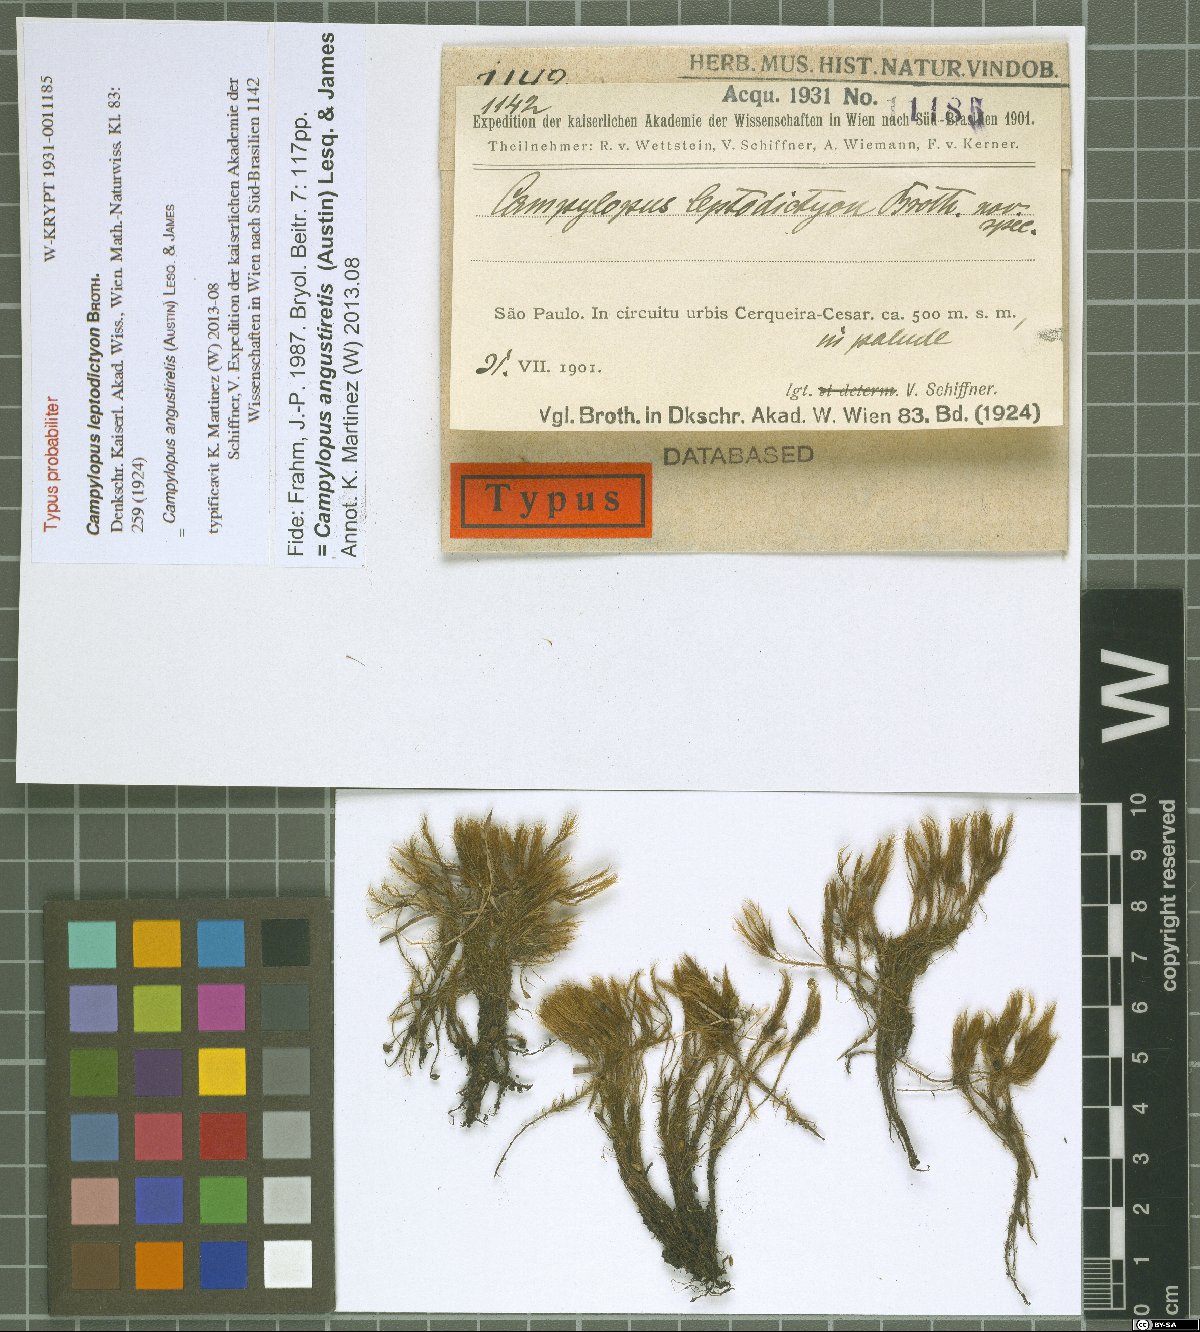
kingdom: Plantae
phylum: Bryophyta
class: Bryopsida
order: Dicranales
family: Leucobryaceae
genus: Campylopus
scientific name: Campylopus angustiretis
